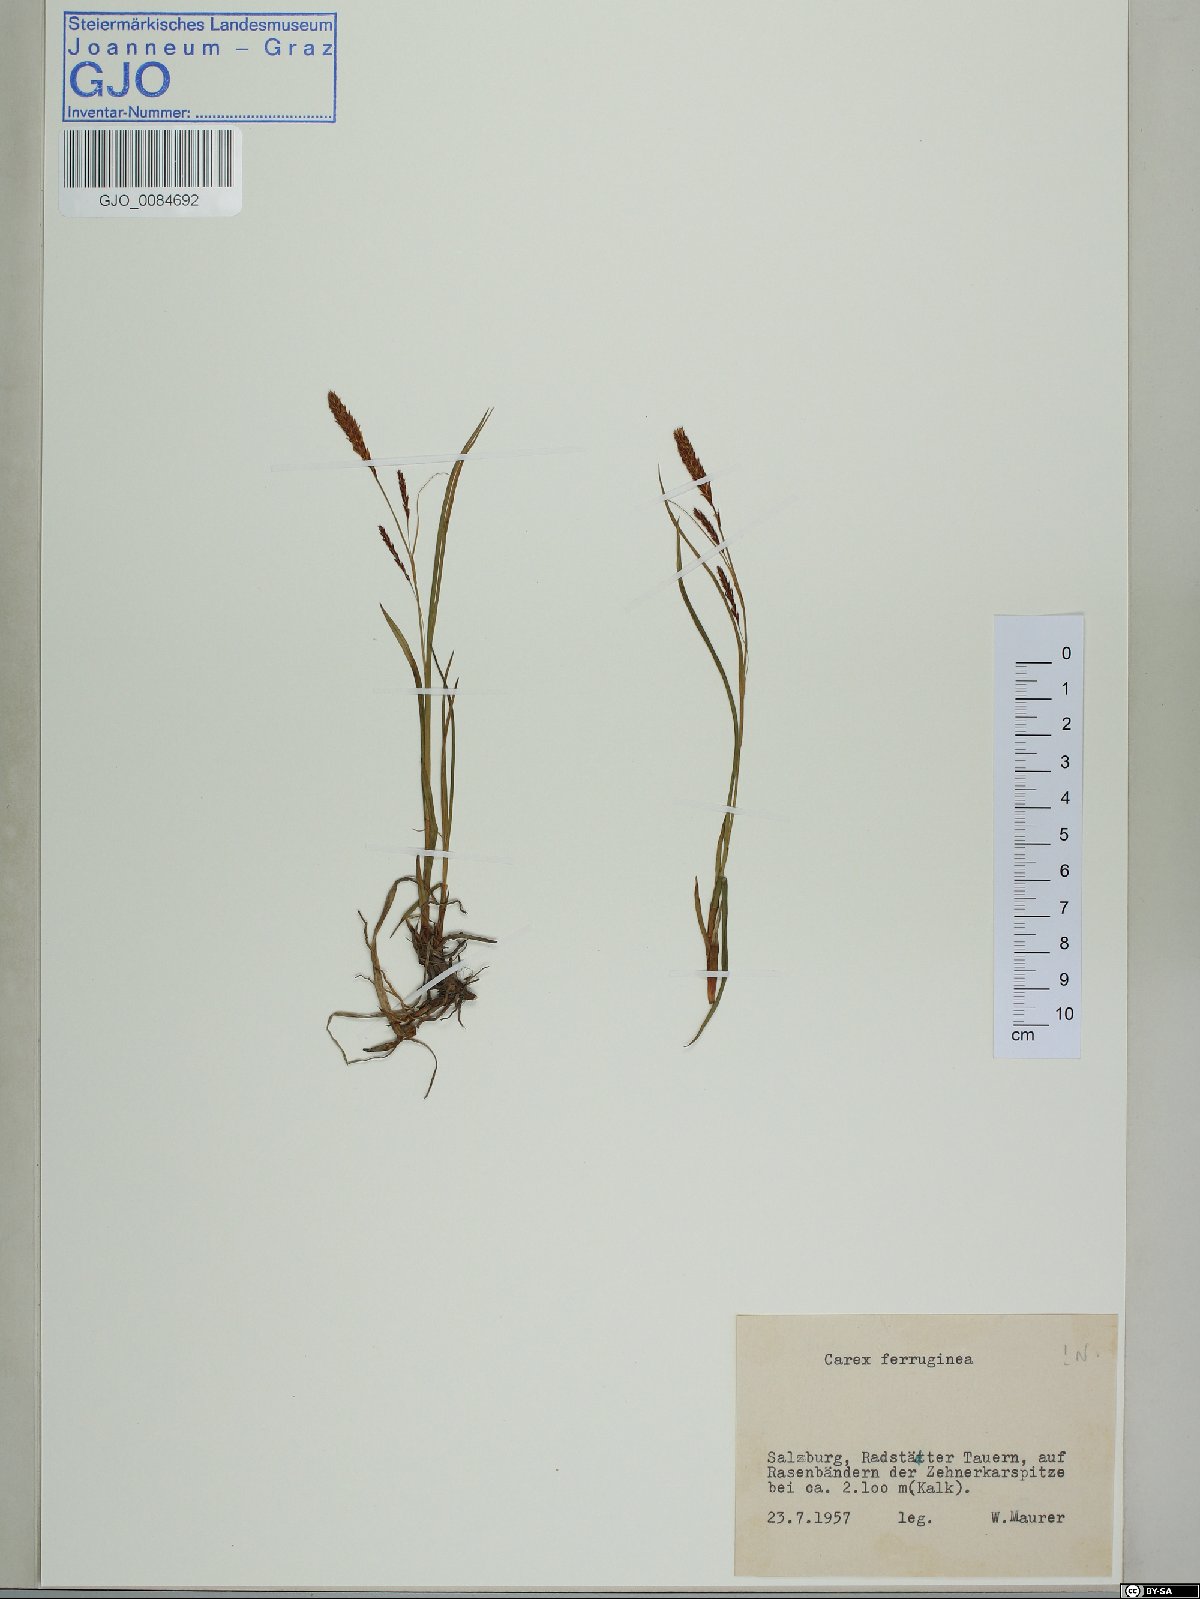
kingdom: Plantae
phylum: Tracheophyta
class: Liliopsida
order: Poales
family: Cyperaceae
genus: Carex
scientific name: Carex ferruginea
